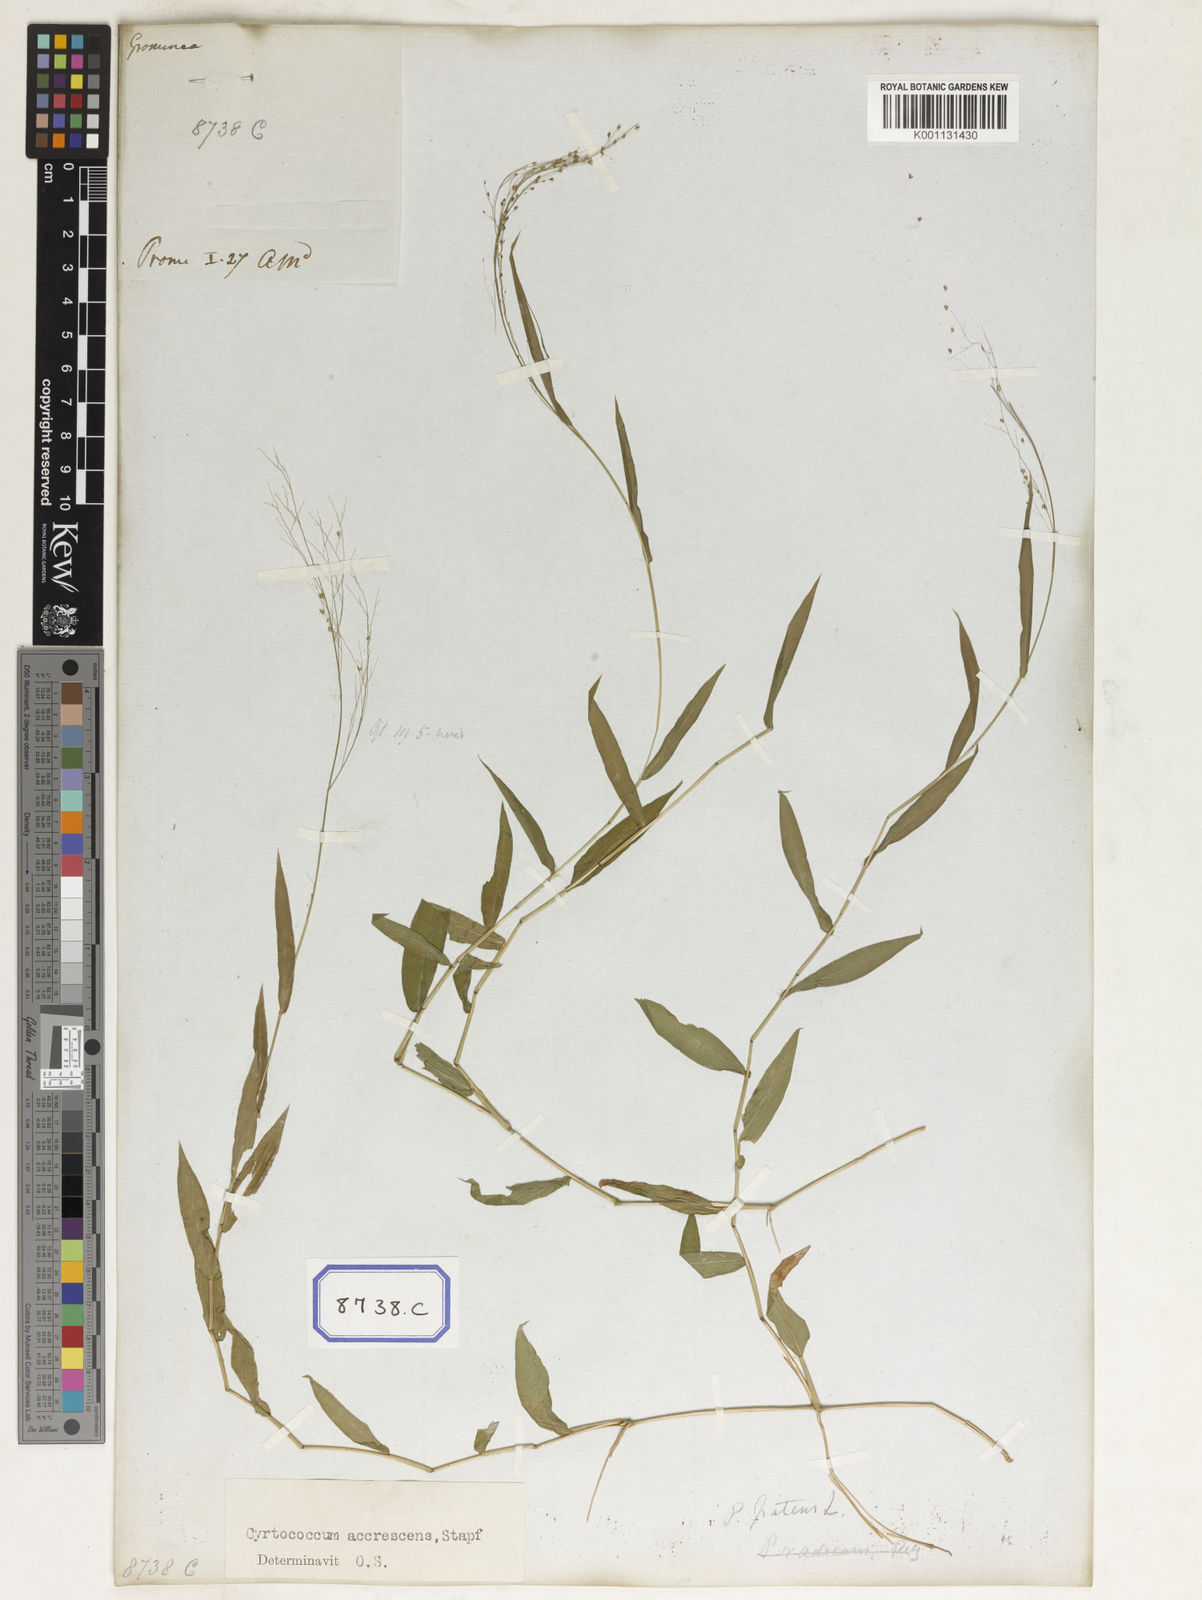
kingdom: Plantae
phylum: Tracheophyta
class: Liliopsida
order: Poales
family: Poaceae
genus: Panicum
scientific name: Panicum
